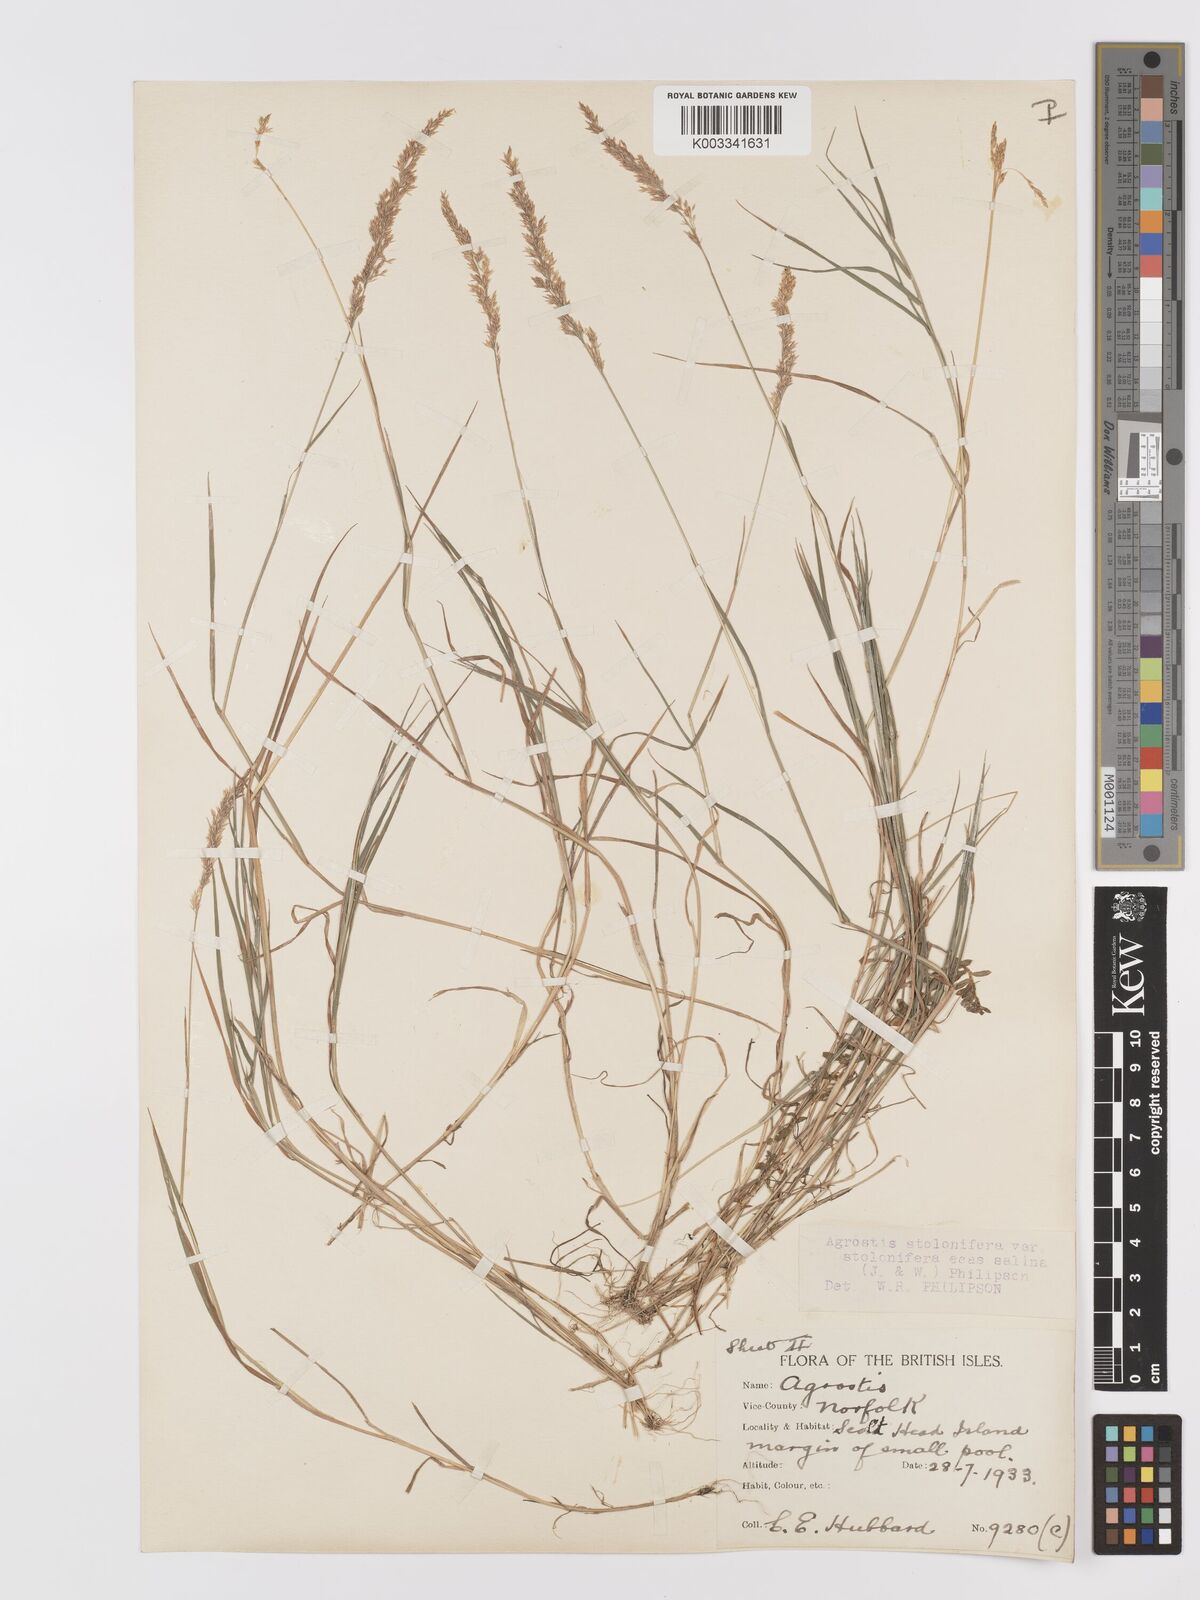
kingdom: Plantae
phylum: Tracheophyta
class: Liliopsida
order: Poales
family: Poaceae
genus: Agrostis
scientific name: Agrostis stolonifera
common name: Creeping bentgrass
